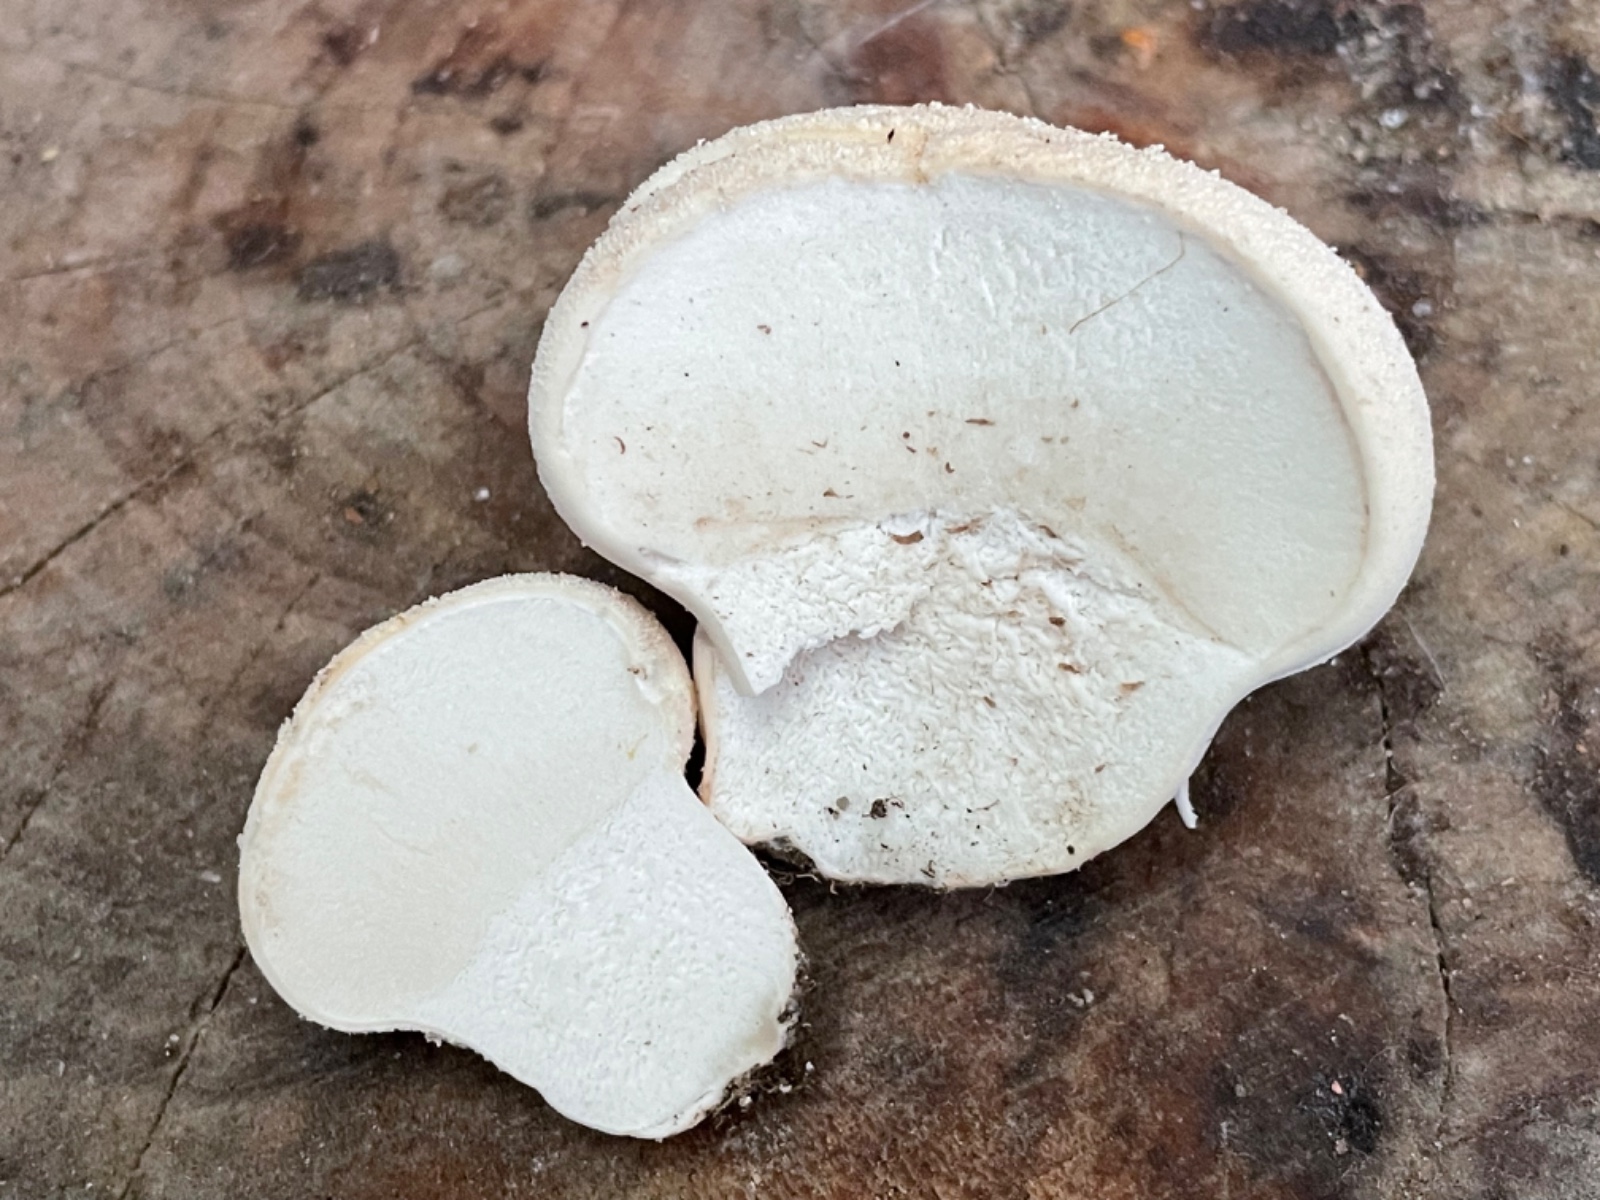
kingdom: Fungi
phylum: Basidiomycota
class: Agaricomycetes
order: Agaricales
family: Lycoperdaceae
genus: Lycoperdon
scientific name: Lycoperdon pratense
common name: flad støvbold
